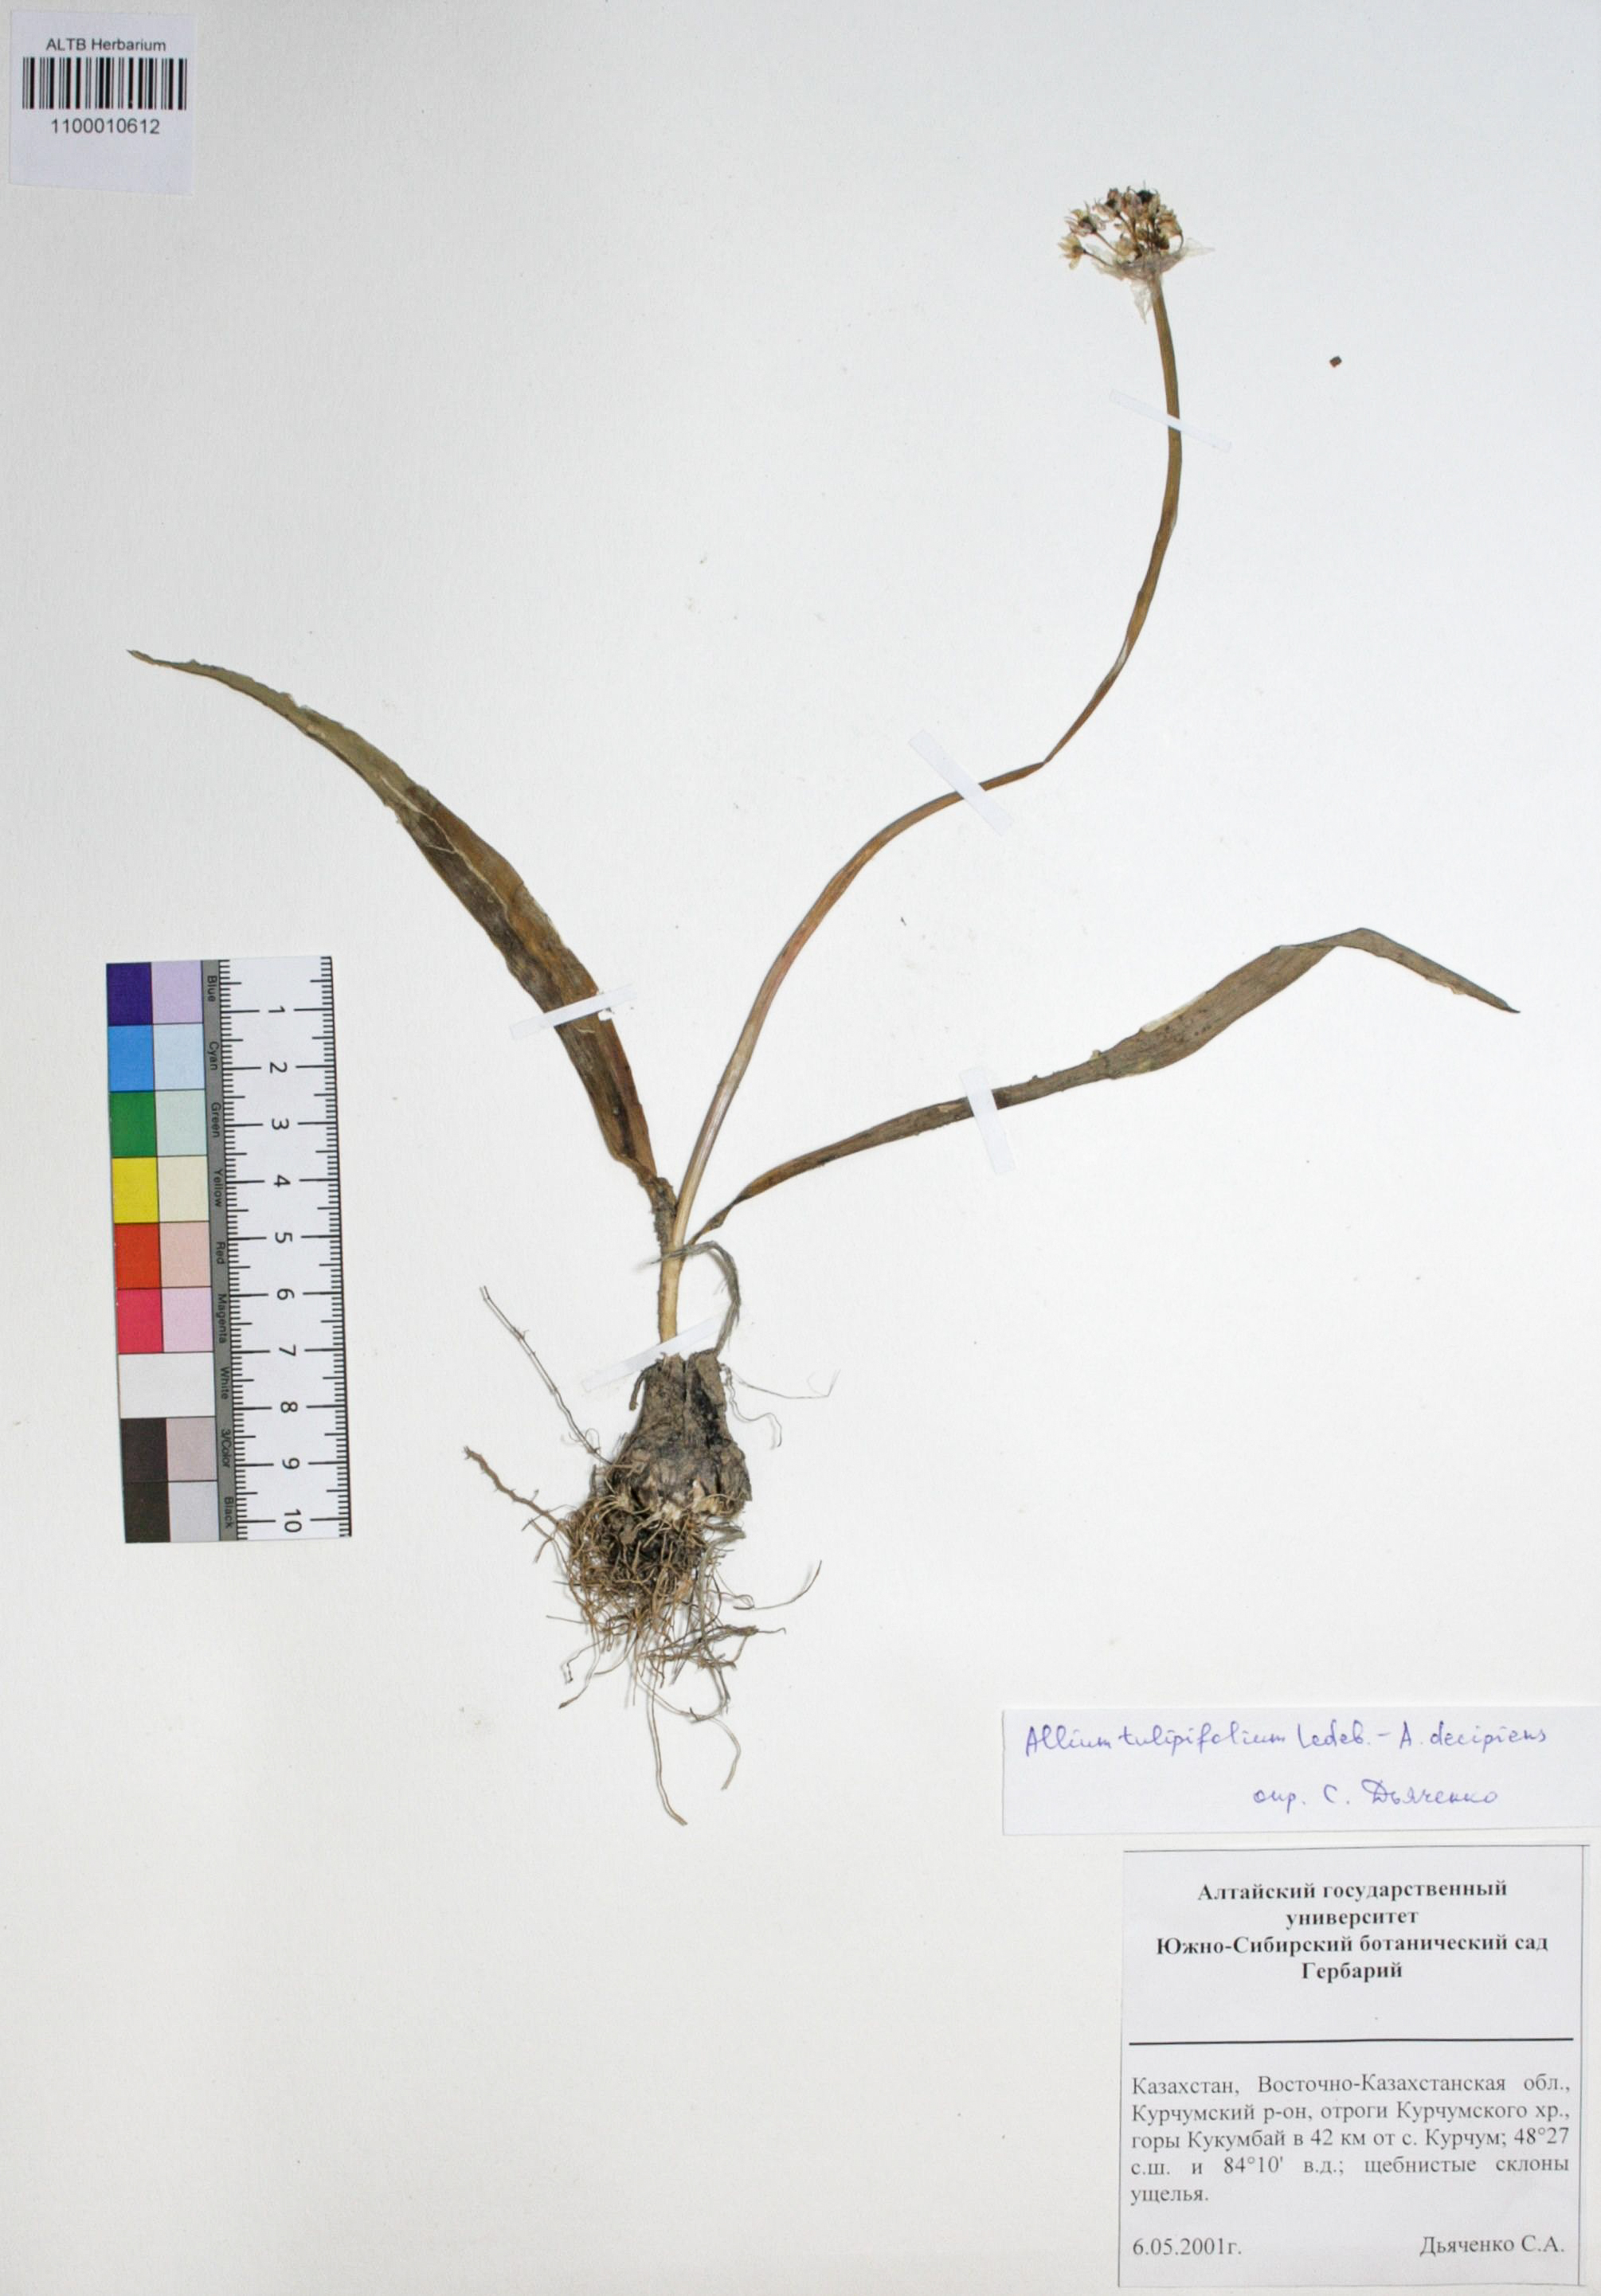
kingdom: Plantae
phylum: Tracheophyta
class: Liliopsida
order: Asparagales
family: Amaryllidaceae
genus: Allium
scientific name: Allium tulipifolium
